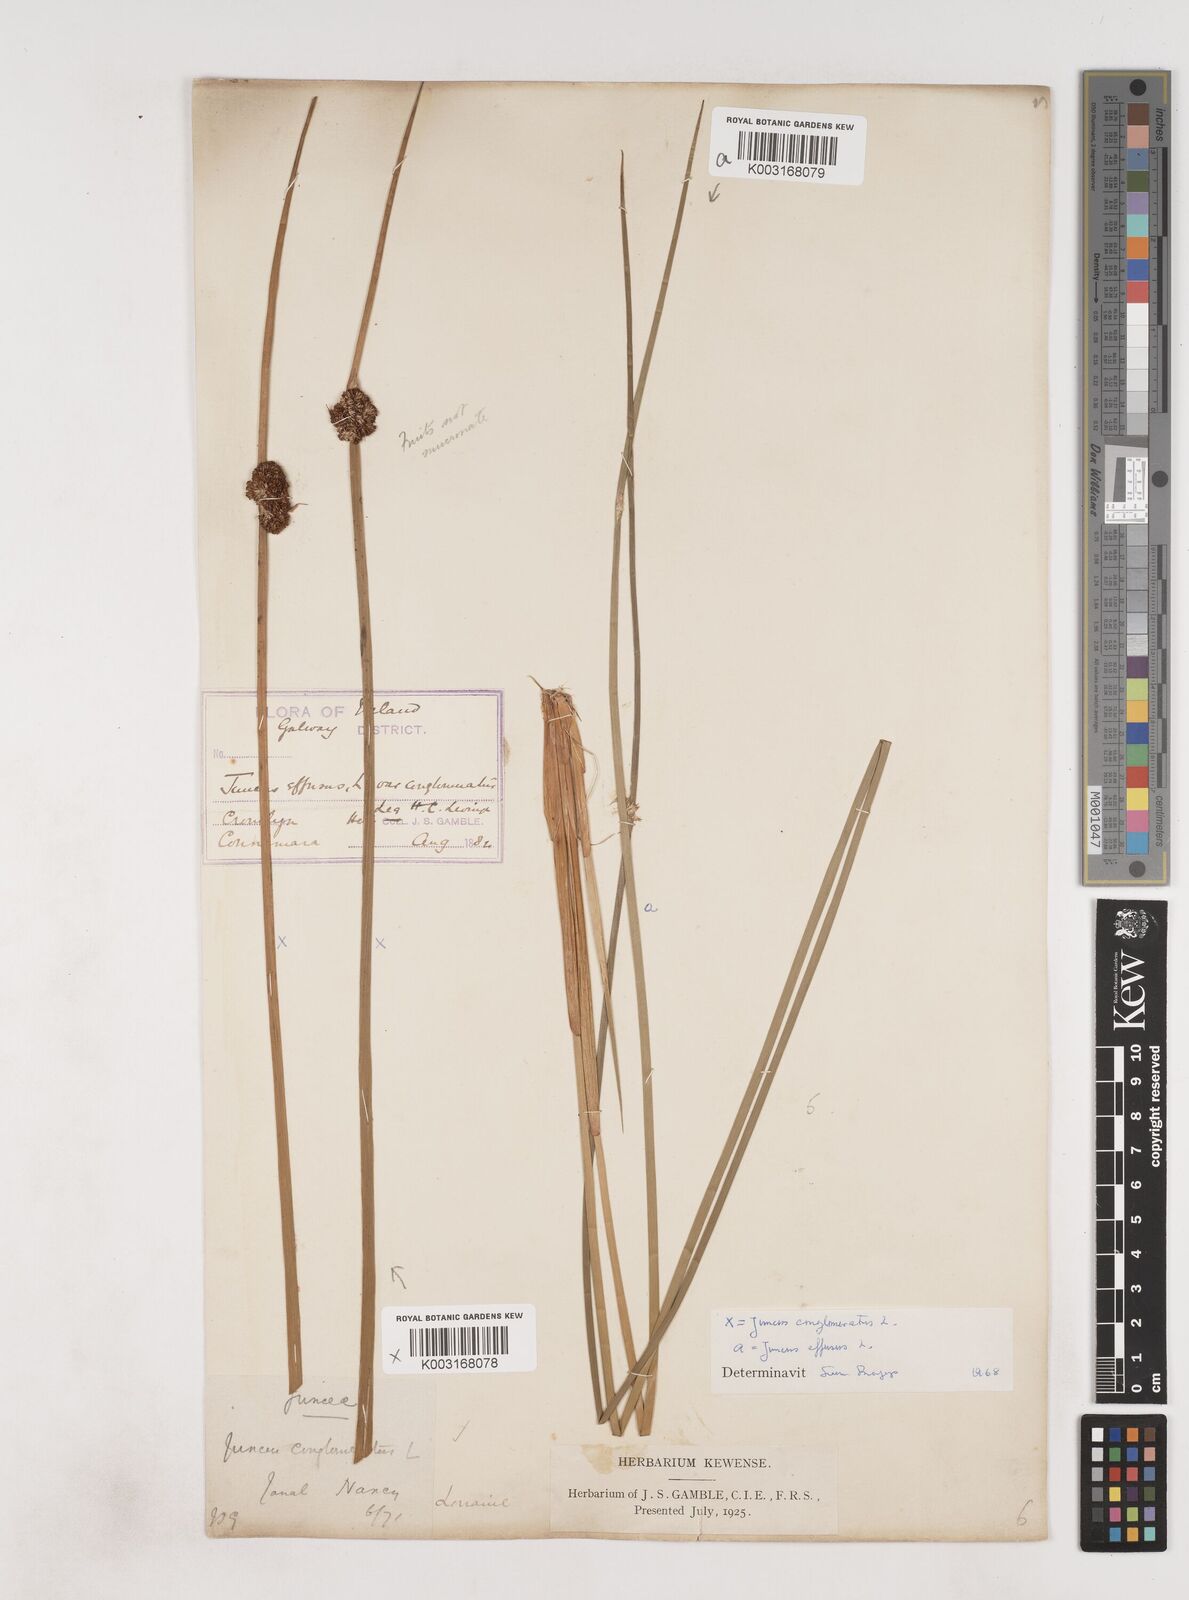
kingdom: Plantae
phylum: Tracheophyta
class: Liliopsida
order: Poales
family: Juncaceae
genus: Juncus
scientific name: Juncus conglomeratus
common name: Compact rush
